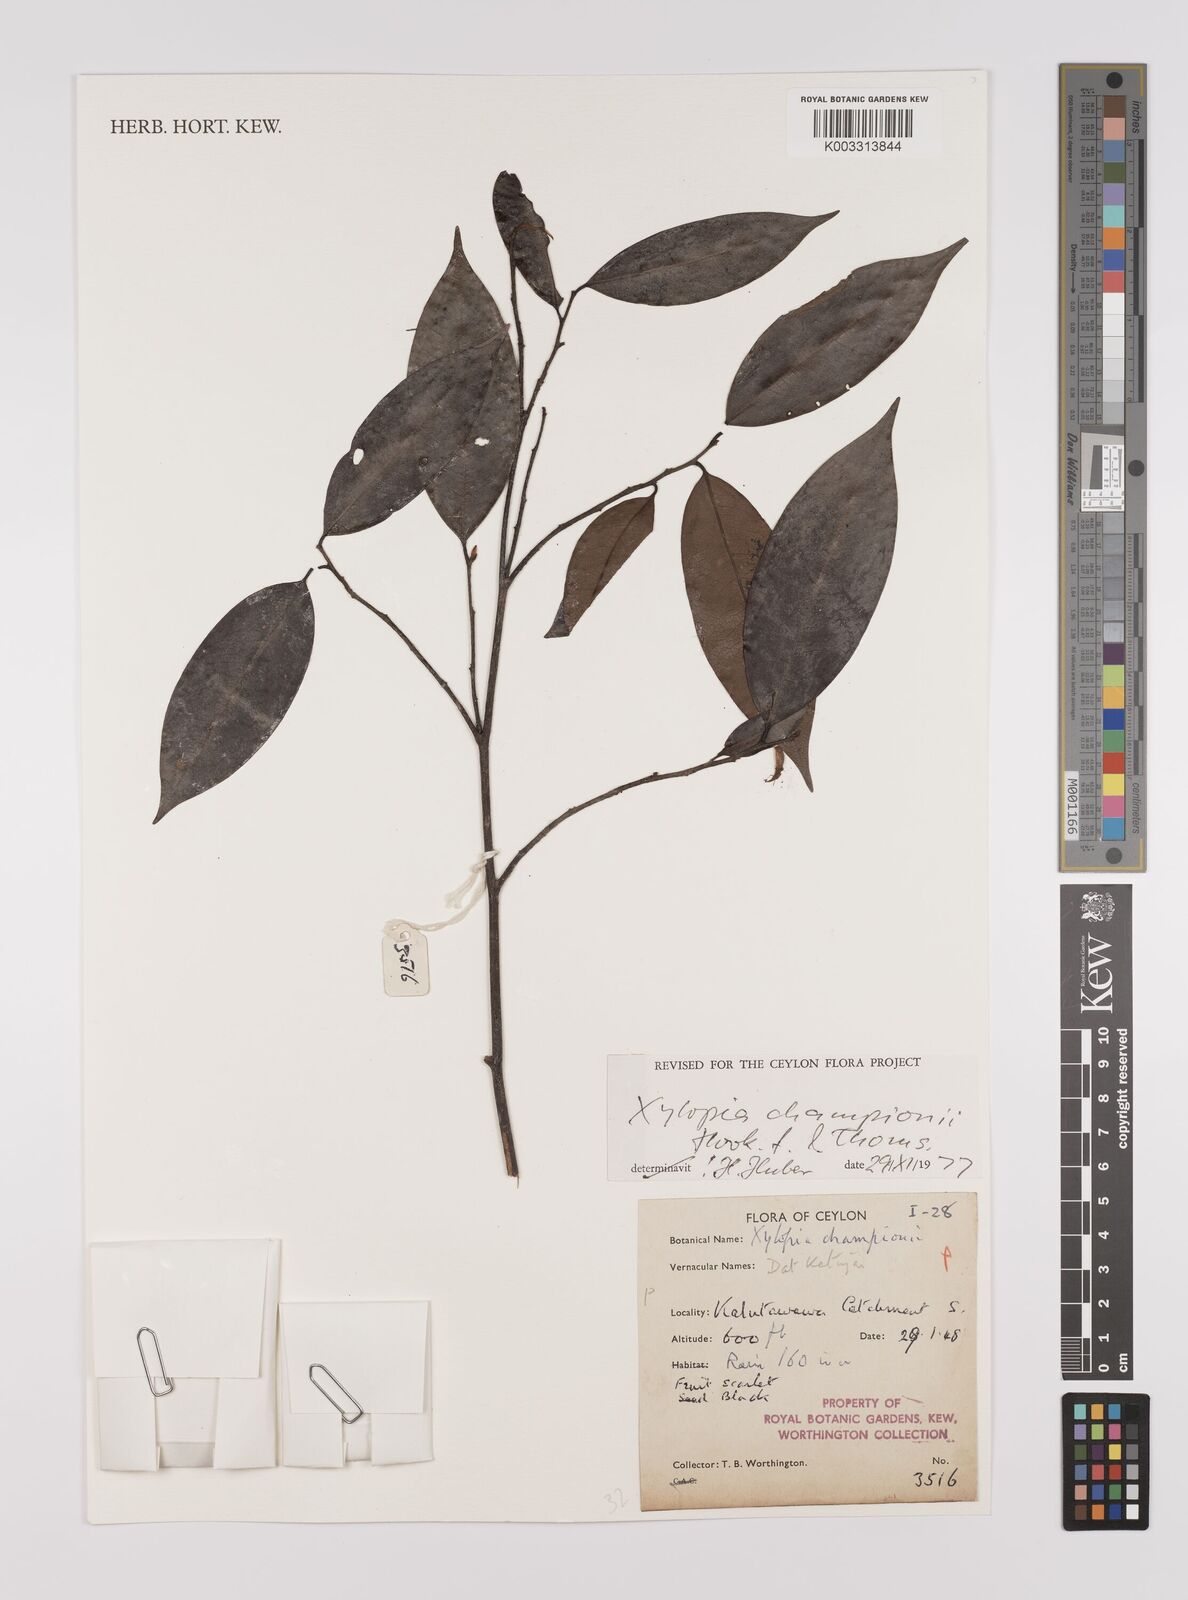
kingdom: Plantae
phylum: Tracheophyta
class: Magnoliopsida
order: Magnoliales
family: Annonaceae
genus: Xylopia
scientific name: Xylopia championii
